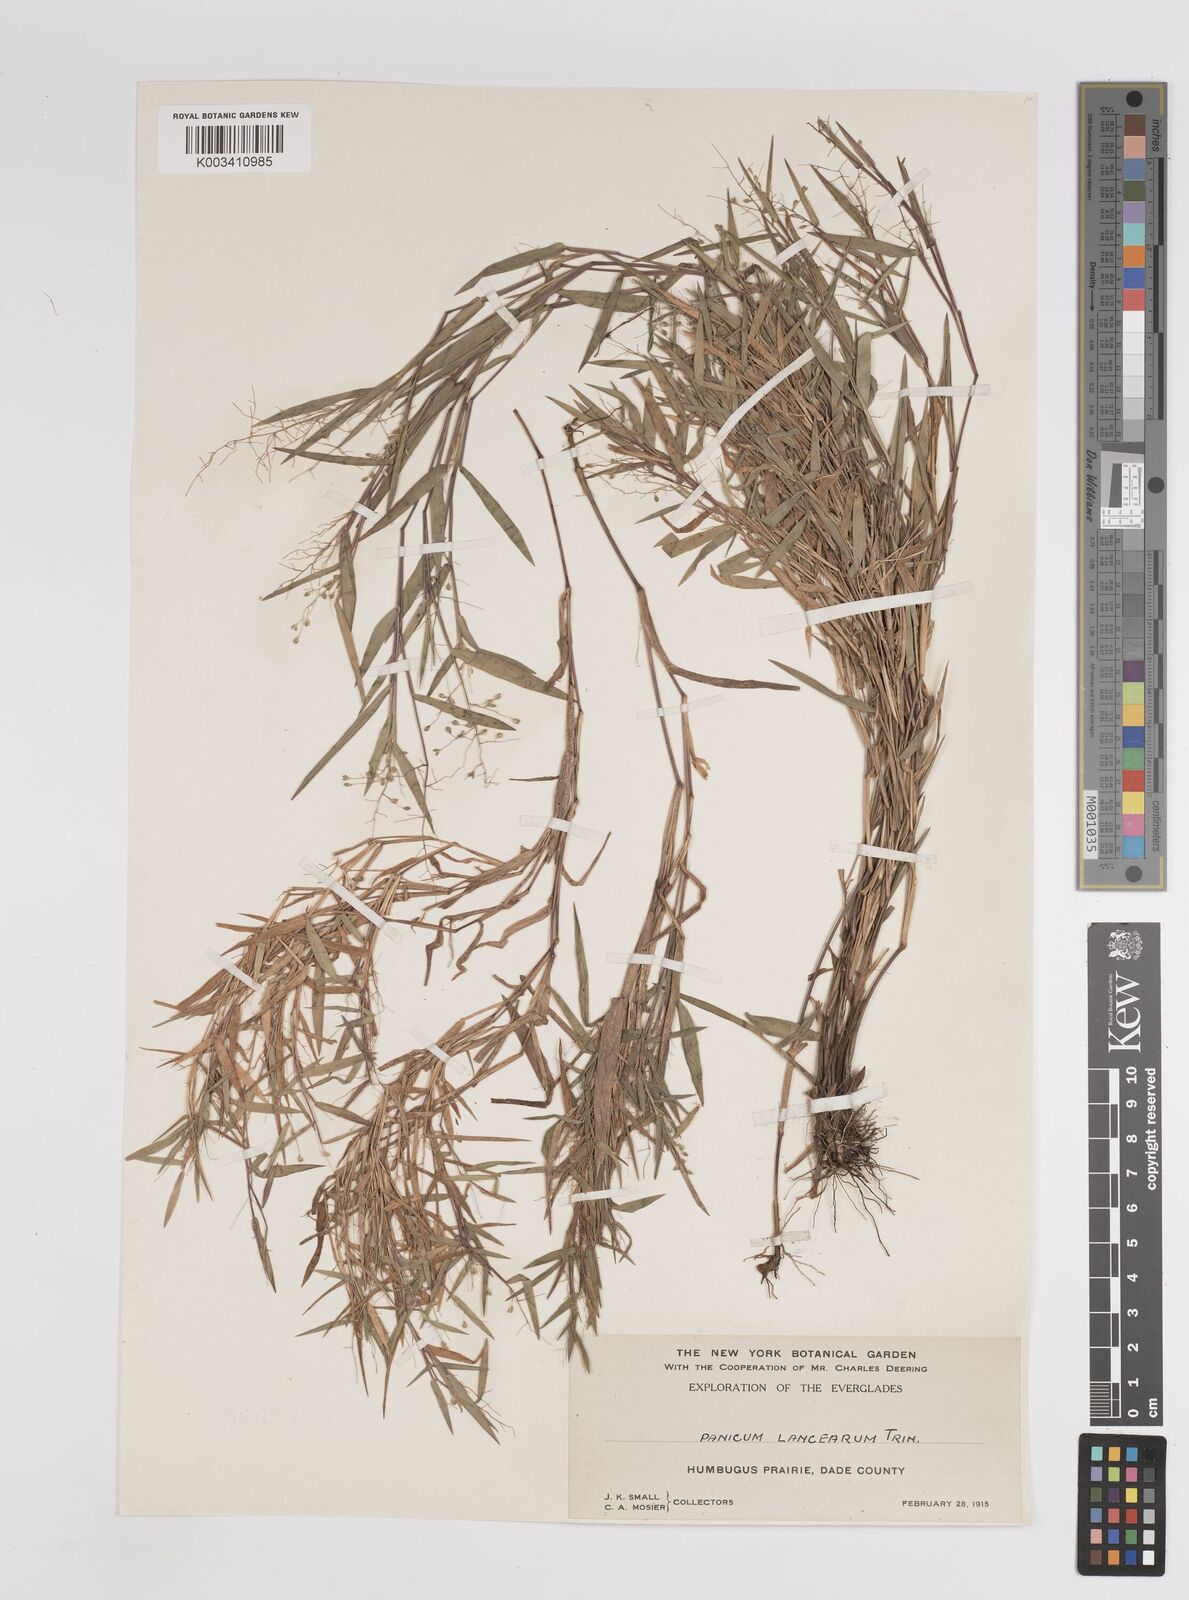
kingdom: Plantae
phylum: Tracheophyta
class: Liliopsida
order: Poales
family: Poaceae
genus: Dichanthelium
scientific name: Dichanthelium portoricense
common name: American panicgrass
